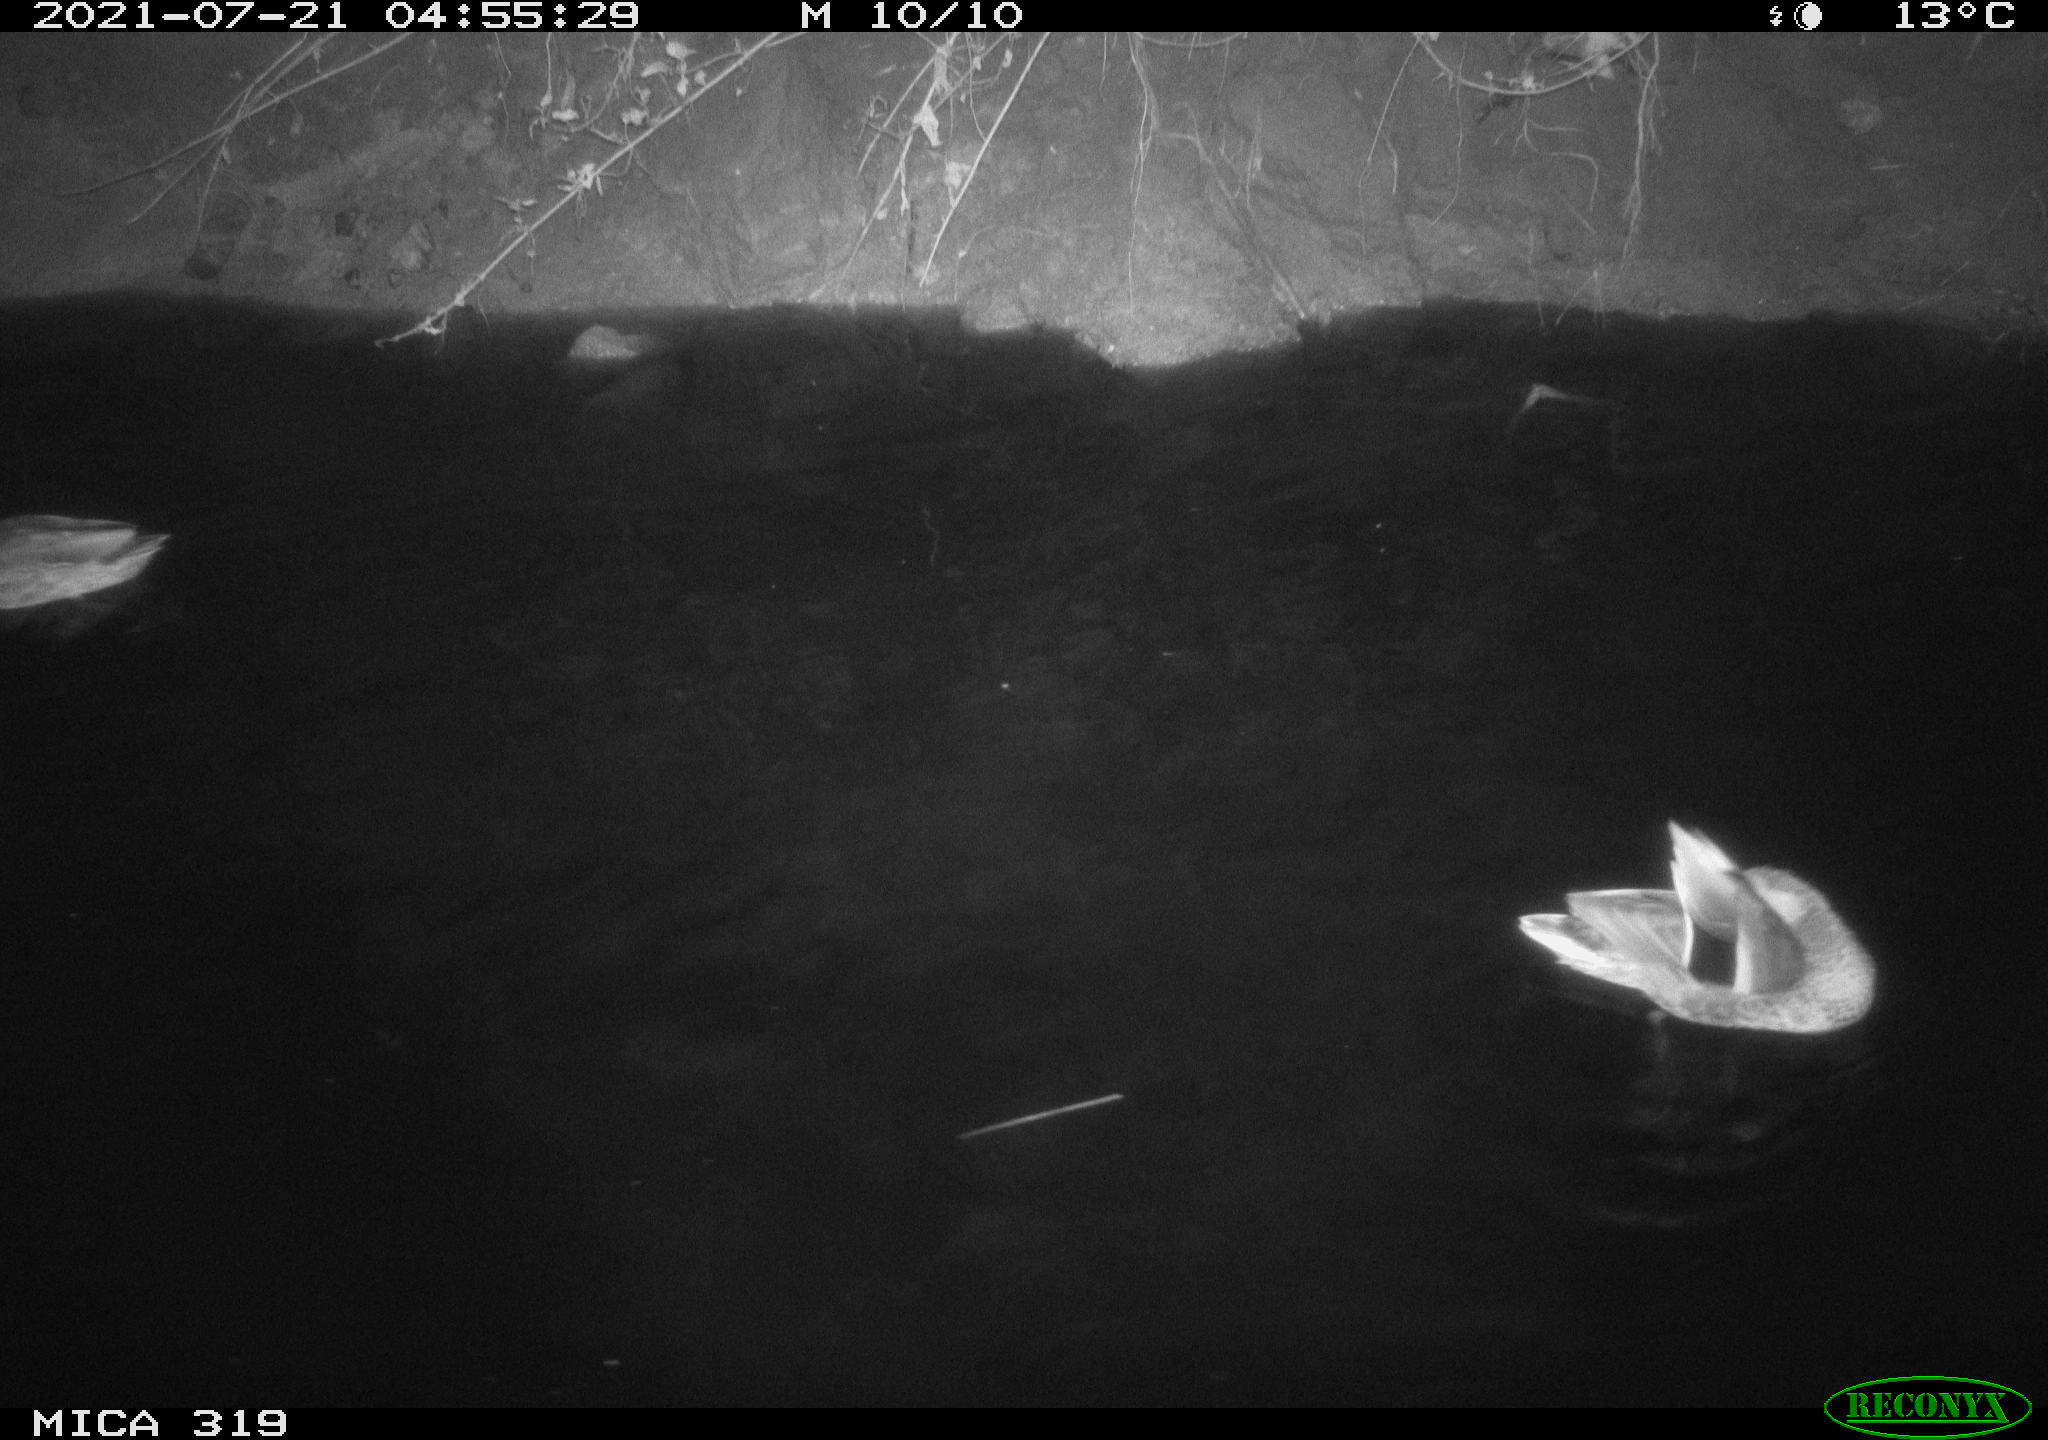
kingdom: Animalia
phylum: Chordata
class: Aves
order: Anseriformes
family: Anatidae
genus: Anas
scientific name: Anas platyrhynchos
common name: Mallard
